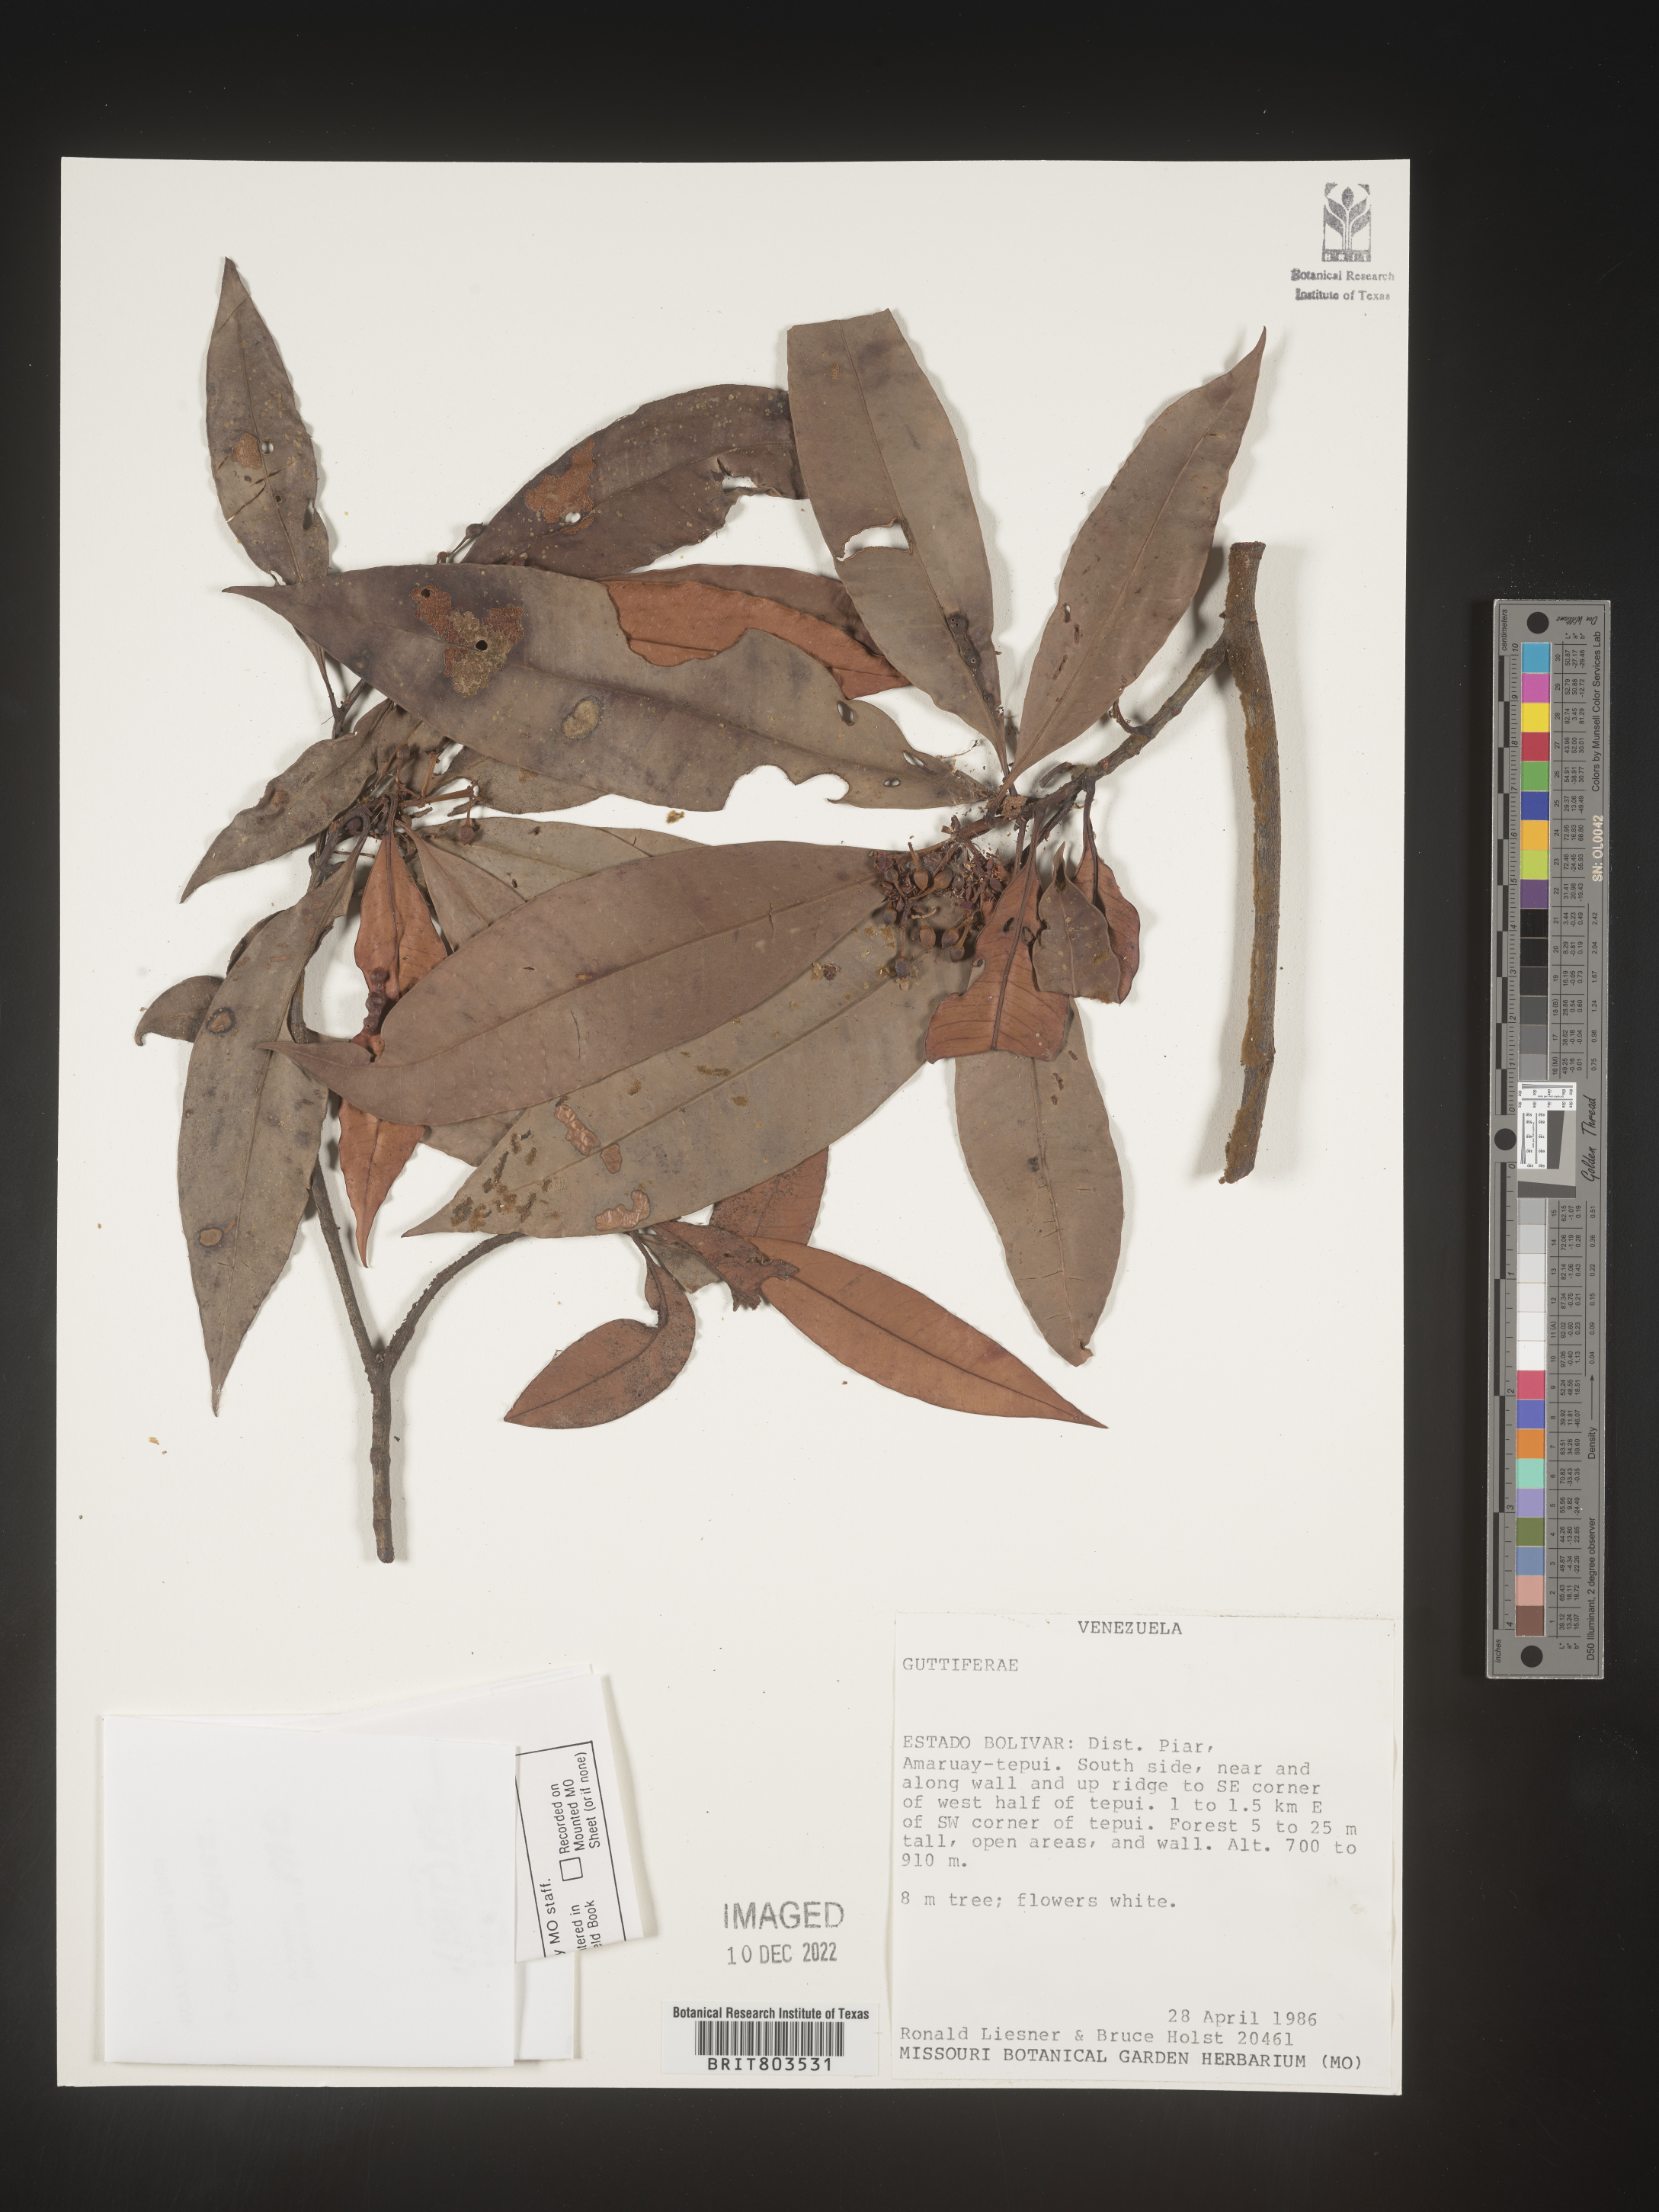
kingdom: Plantae
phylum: Tracheophyta
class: Magnoliopsida
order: Malpighiales
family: Clusiaceae
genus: Tovomita
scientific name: Tovomita
